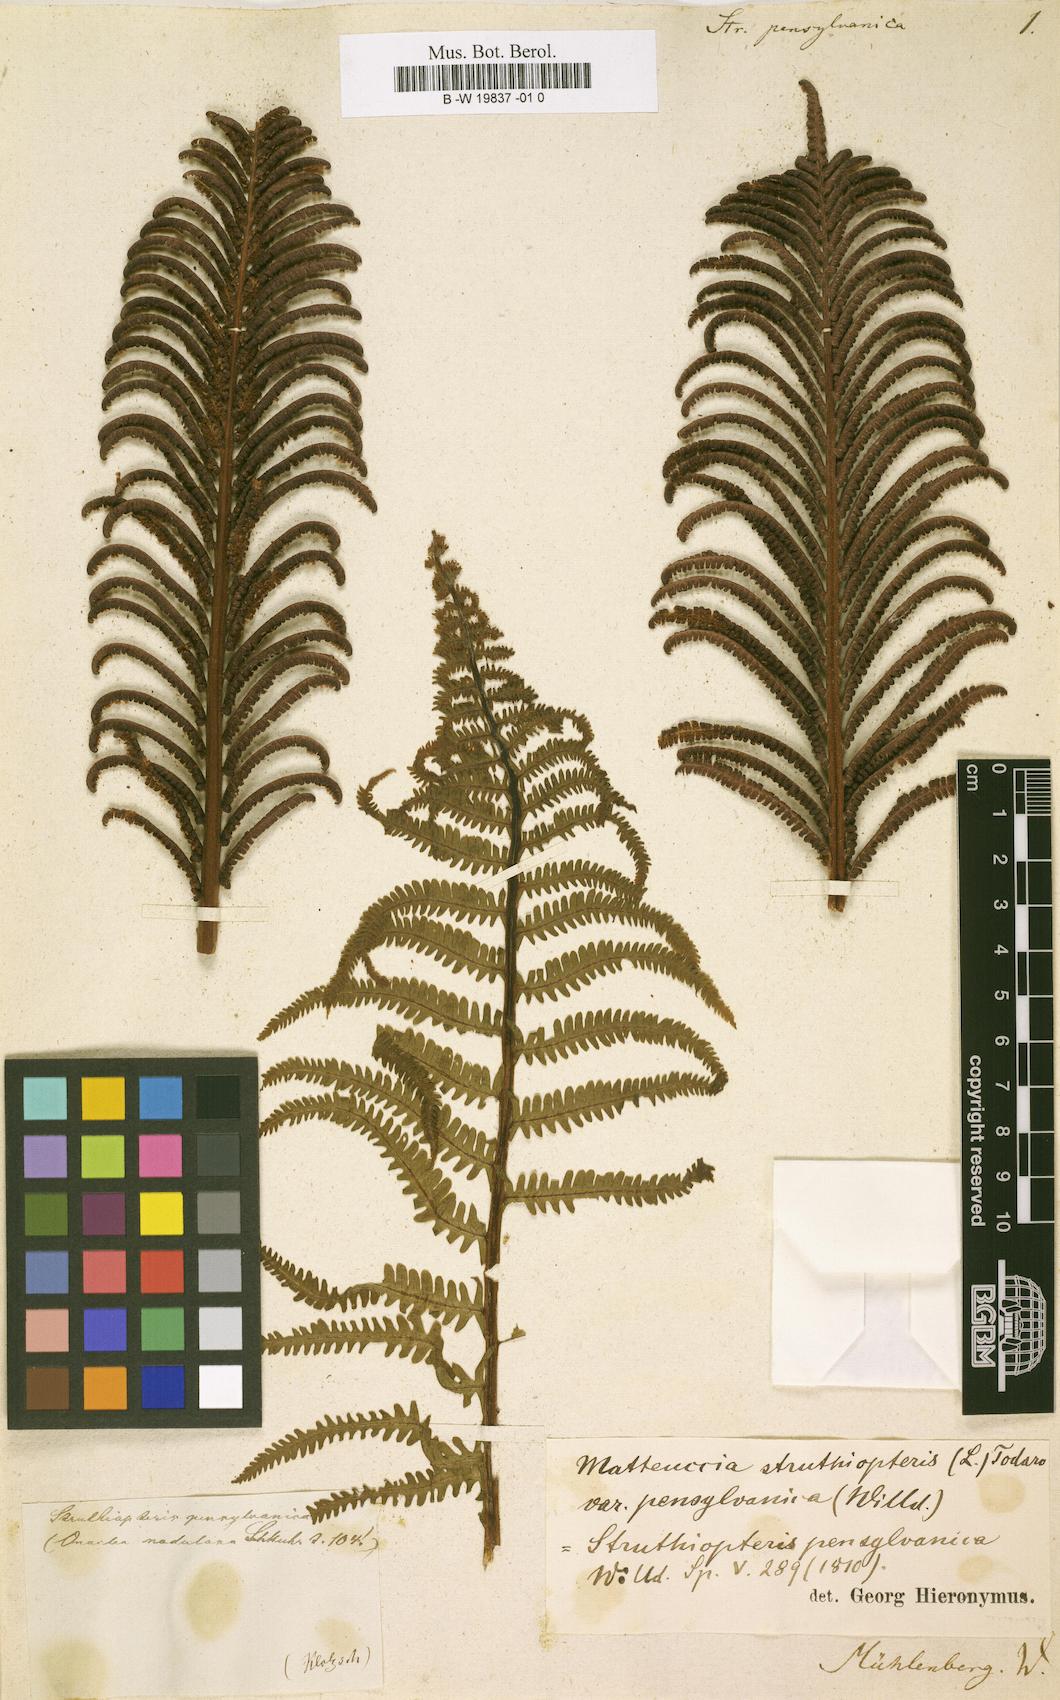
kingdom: Plantae
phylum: Tracheophyta
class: Polypodiopsida
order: Polypodiales
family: Onocleaceae
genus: Matteuccia
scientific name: Matteuccia pensylvanica
